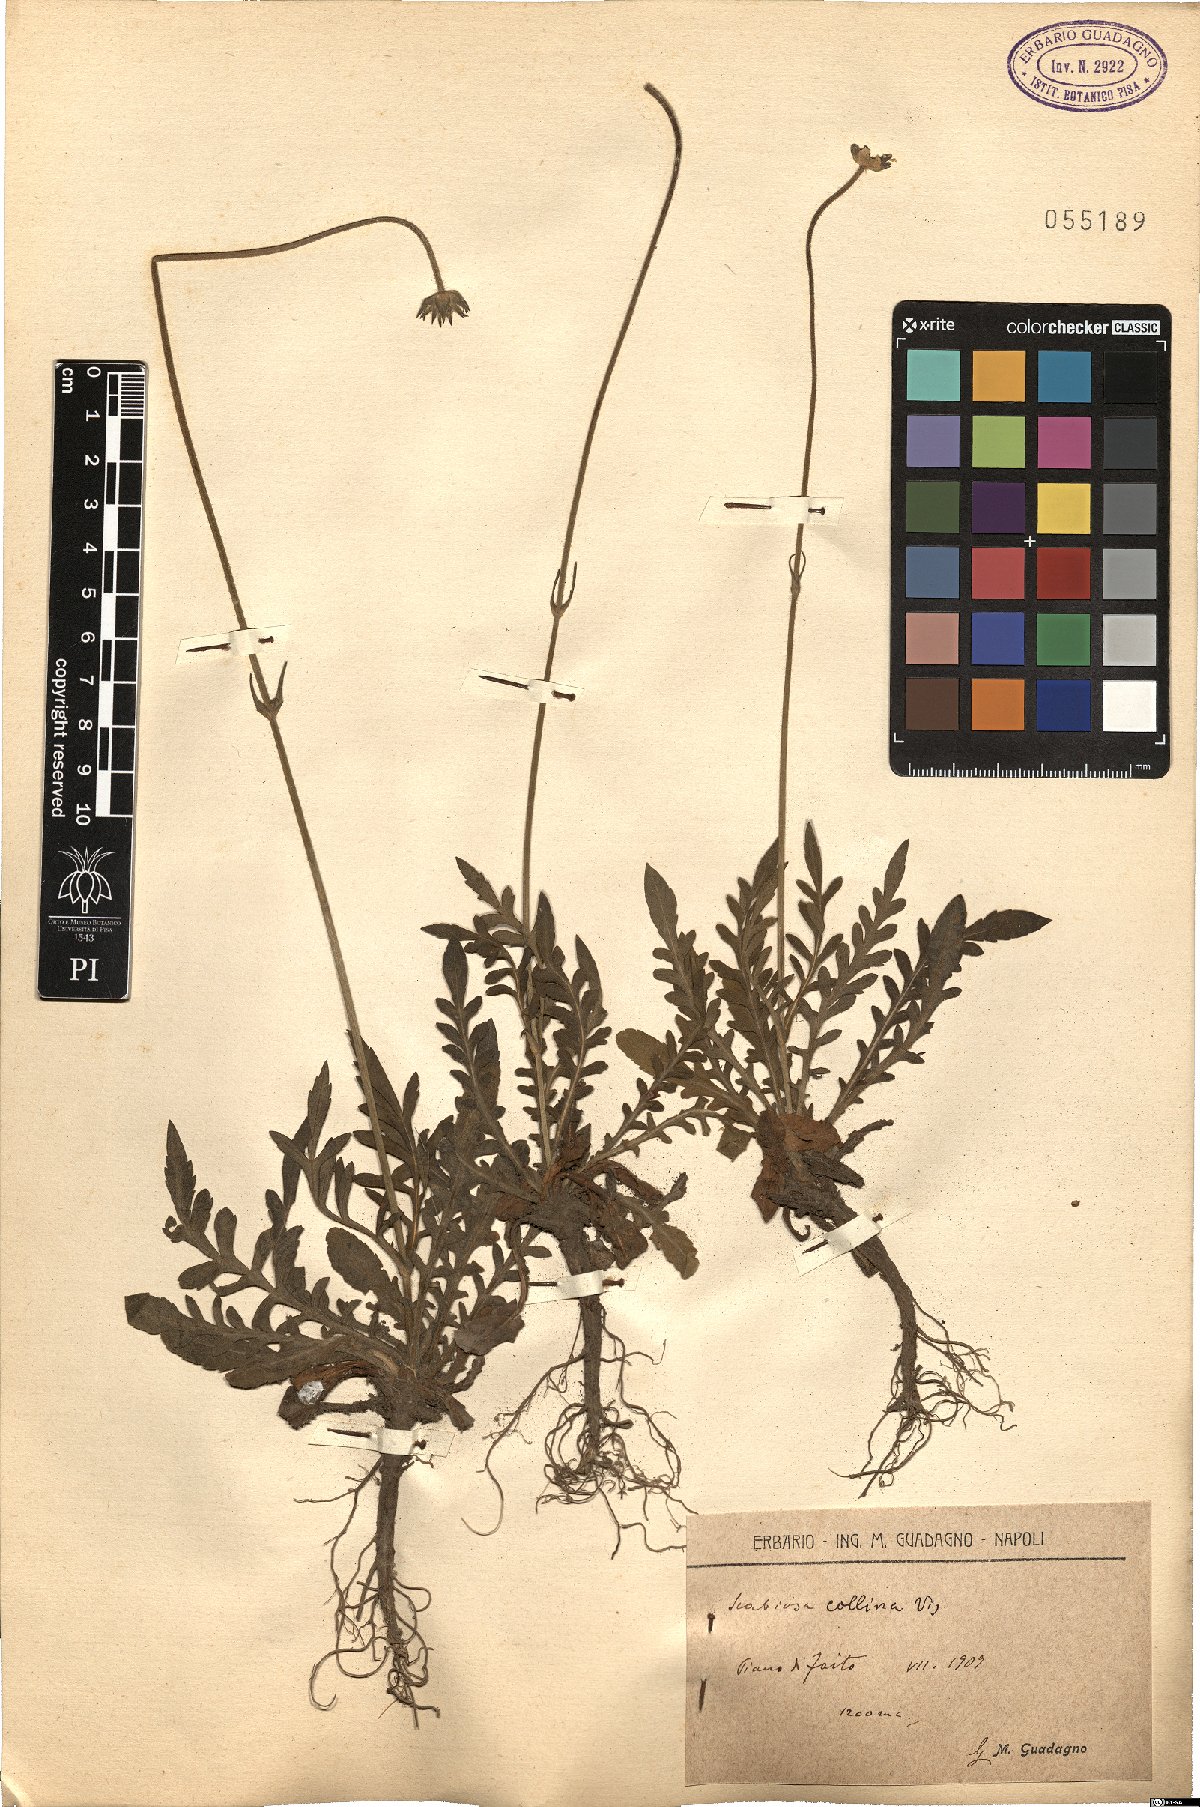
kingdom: Plantae
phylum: Tracheophyta
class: Magnoliopsida
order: Dipsacales
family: Caprifoliaceae
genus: Knautia
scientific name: Knautia collina
